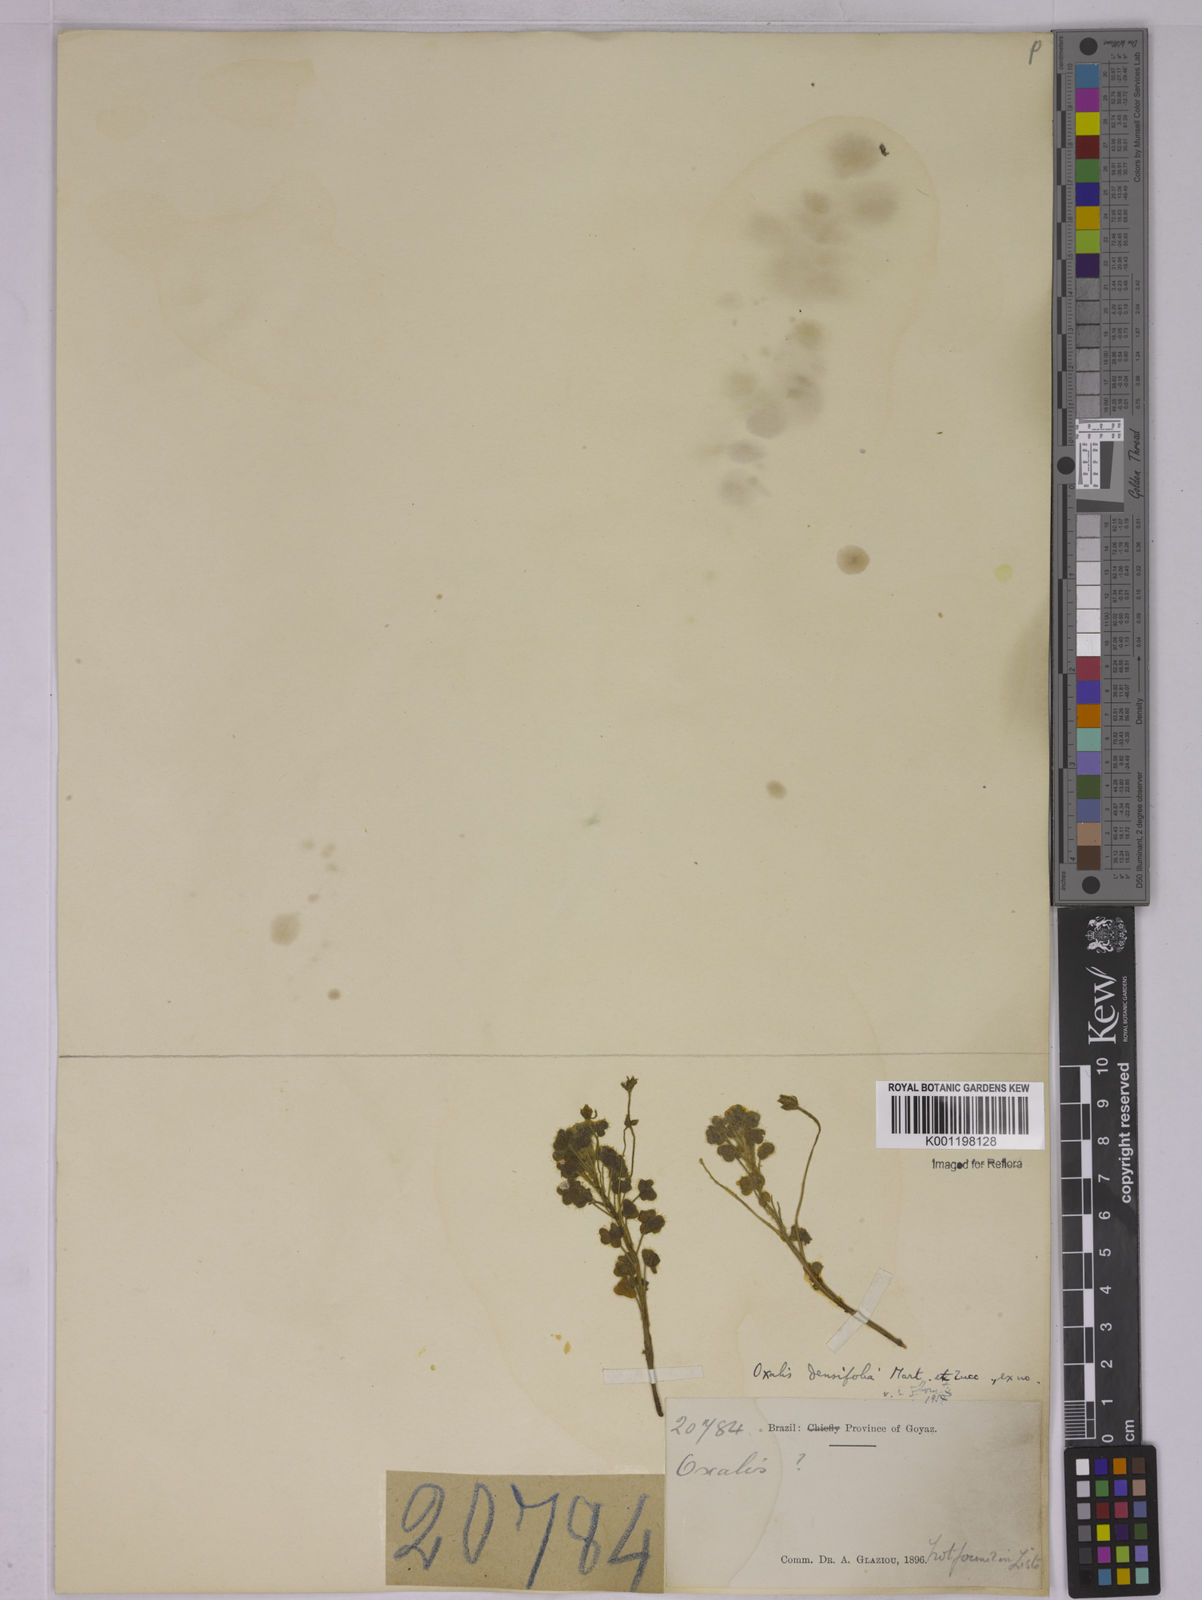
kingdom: Plantae
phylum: Tracheophyta
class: Magnoliopsida
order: Oxalidales
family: Oxalidaceae
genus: Oxalis
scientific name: Oxalis densifolia
